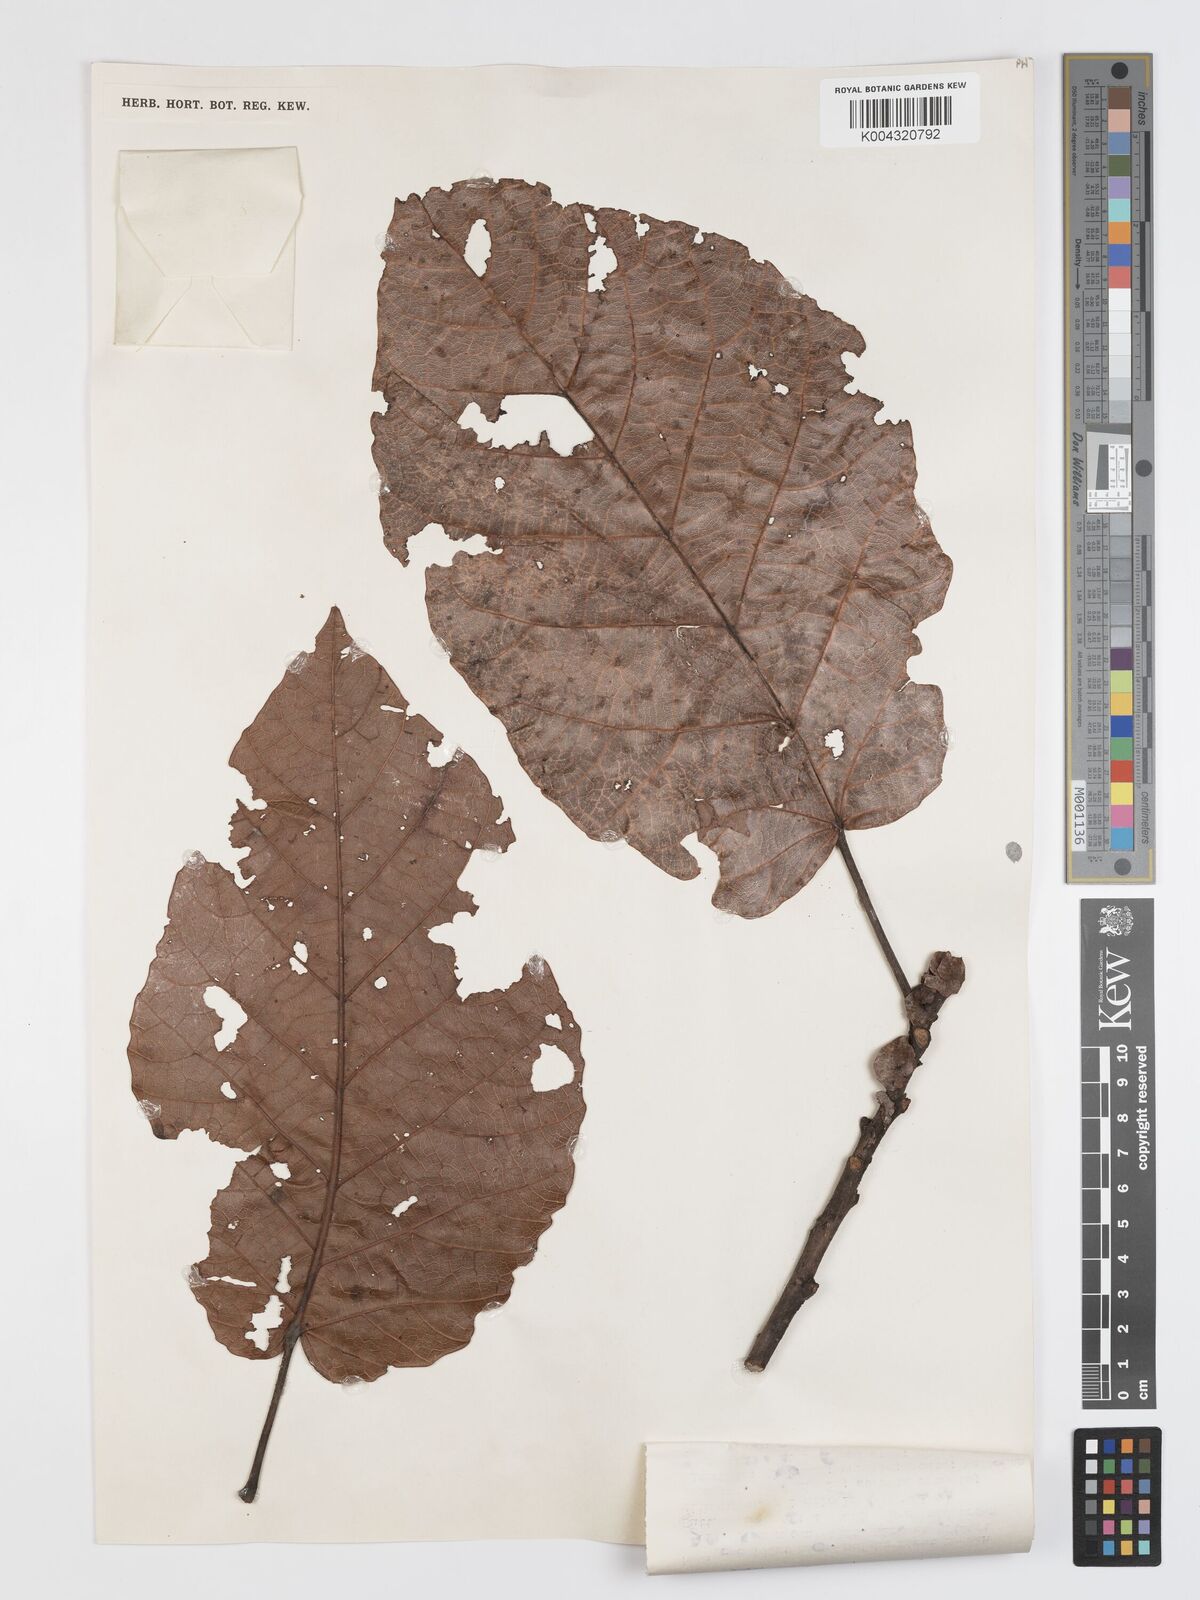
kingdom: Plantae
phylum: Tracheophyta
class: Magnoliopsida
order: Oxalidales
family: Elaeocarpaceae
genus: Sloanea
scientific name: Sloanea sogerensis
